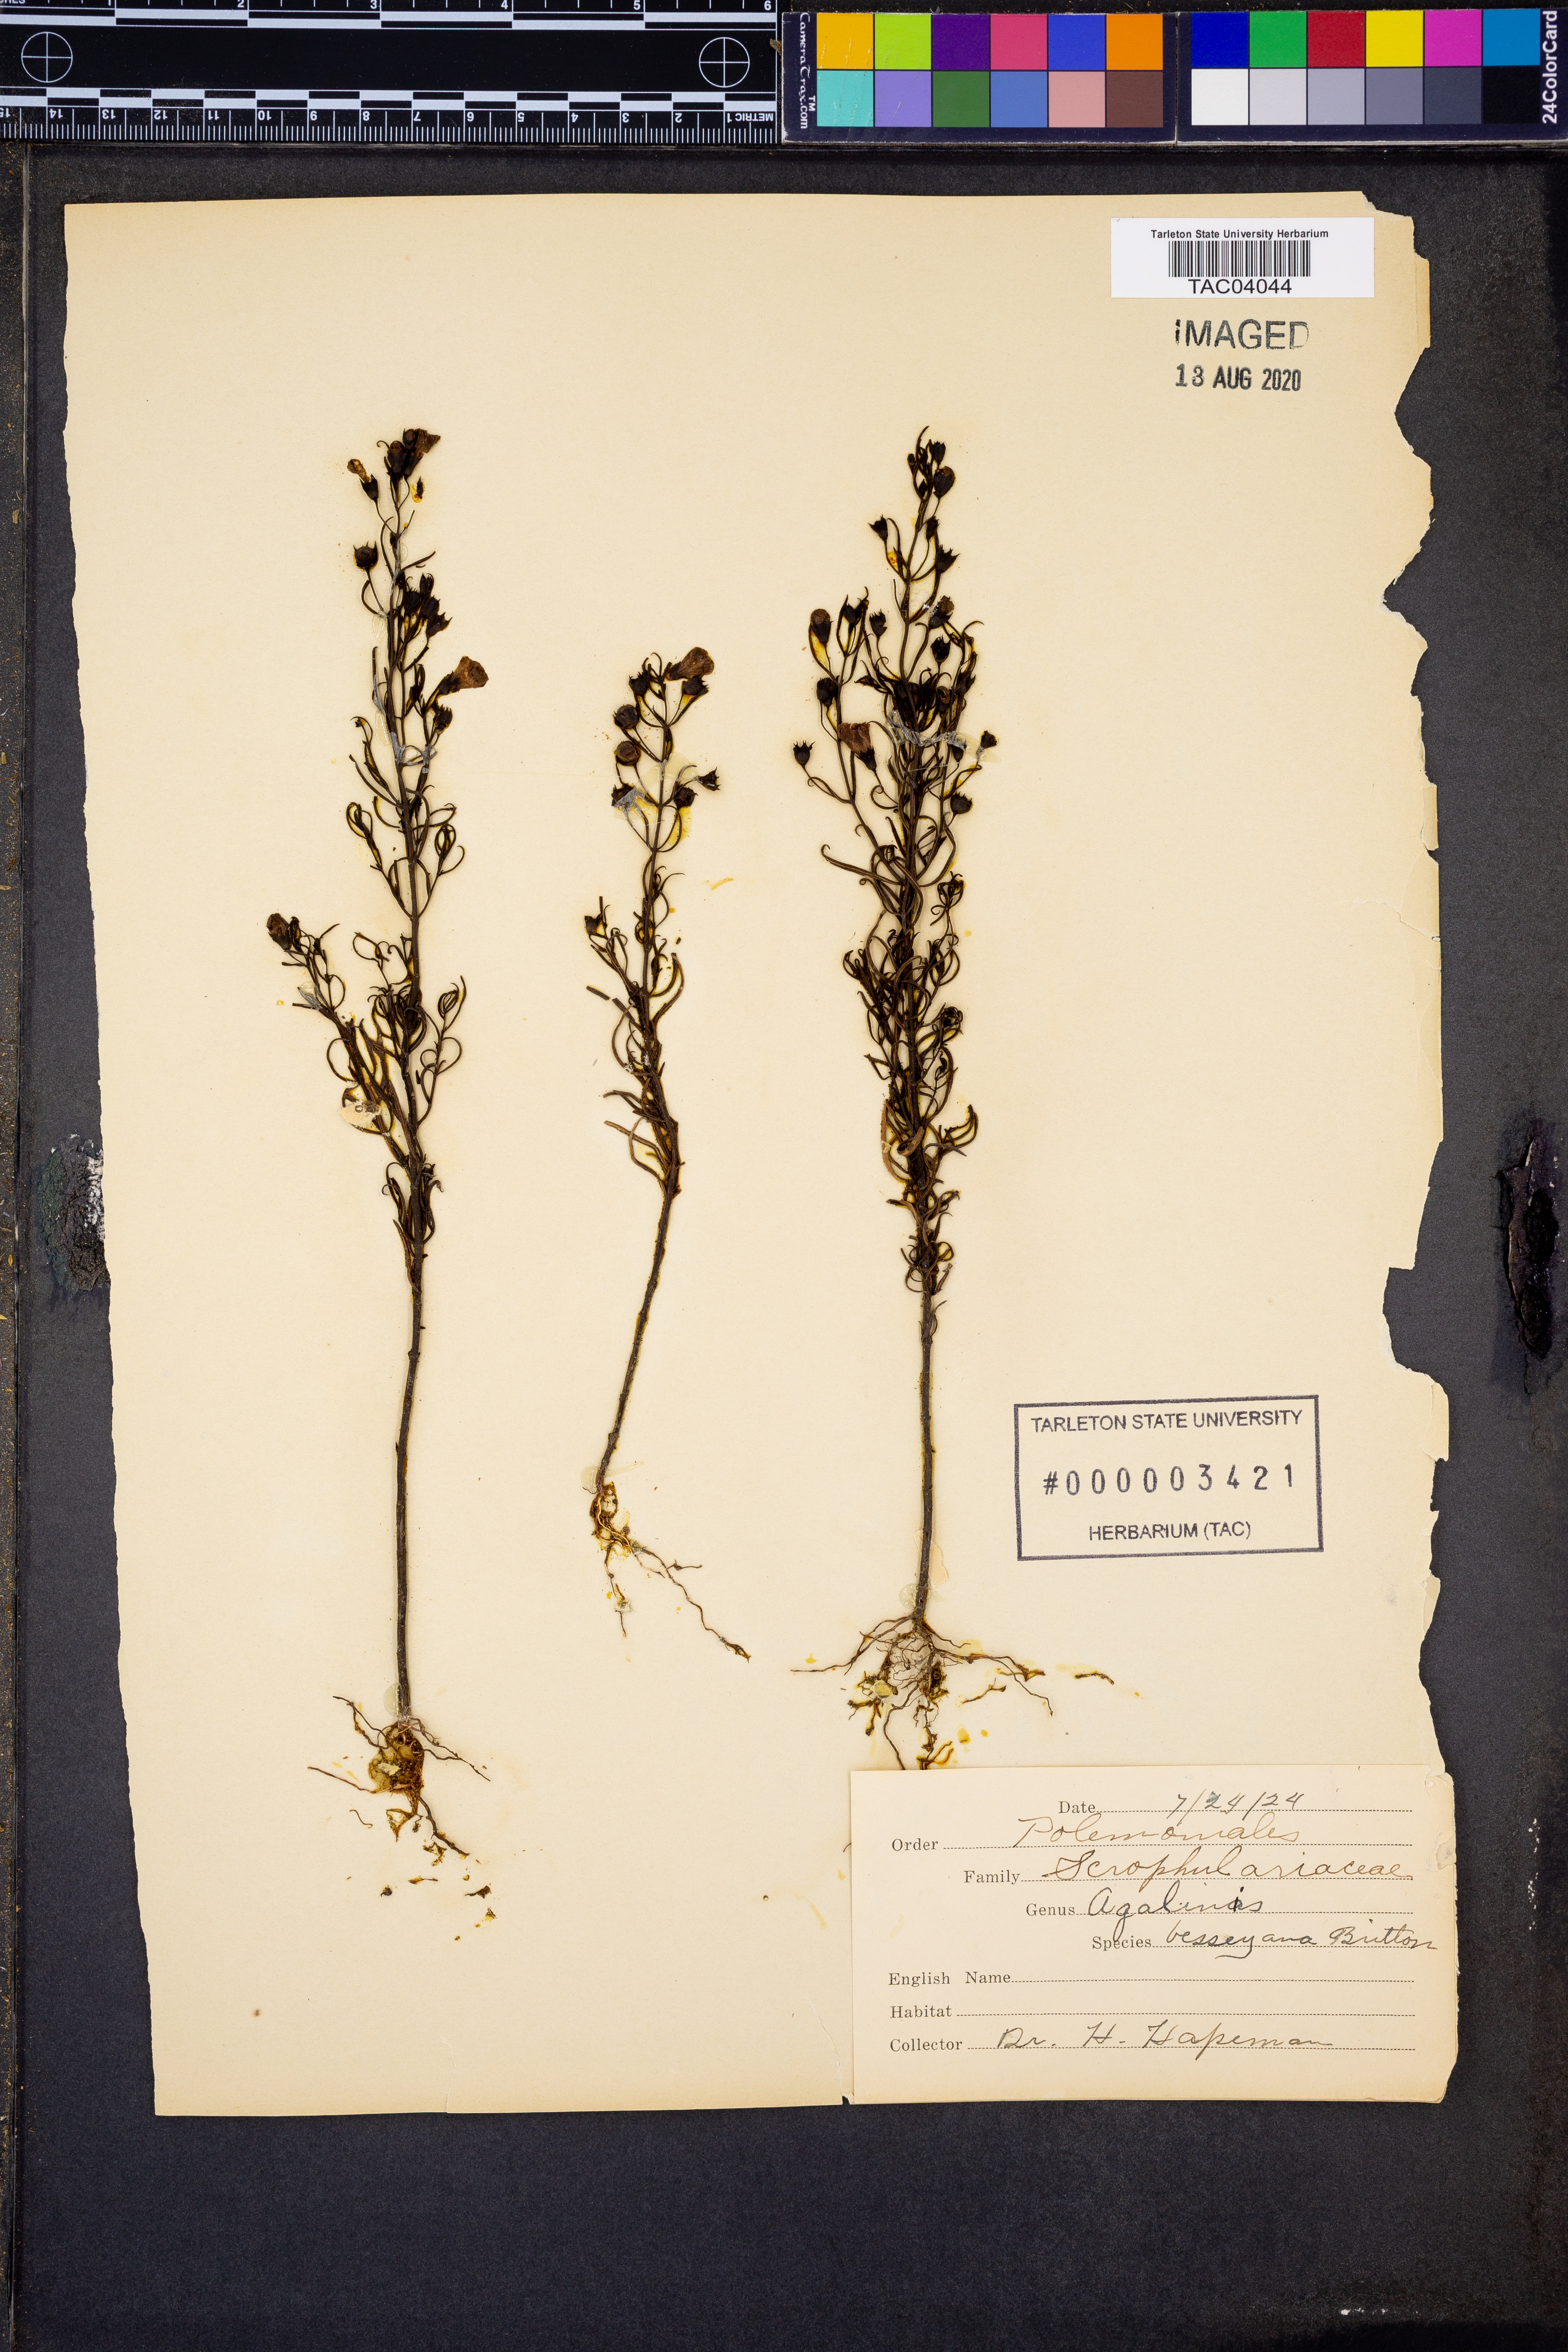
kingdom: Plantae
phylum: Tracheophyta
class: Magnoliopsida
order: Lamiales
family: Orobanchaceae
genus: Agalinis
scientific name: Agalinis tenuifolia
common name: Slender agalinis
